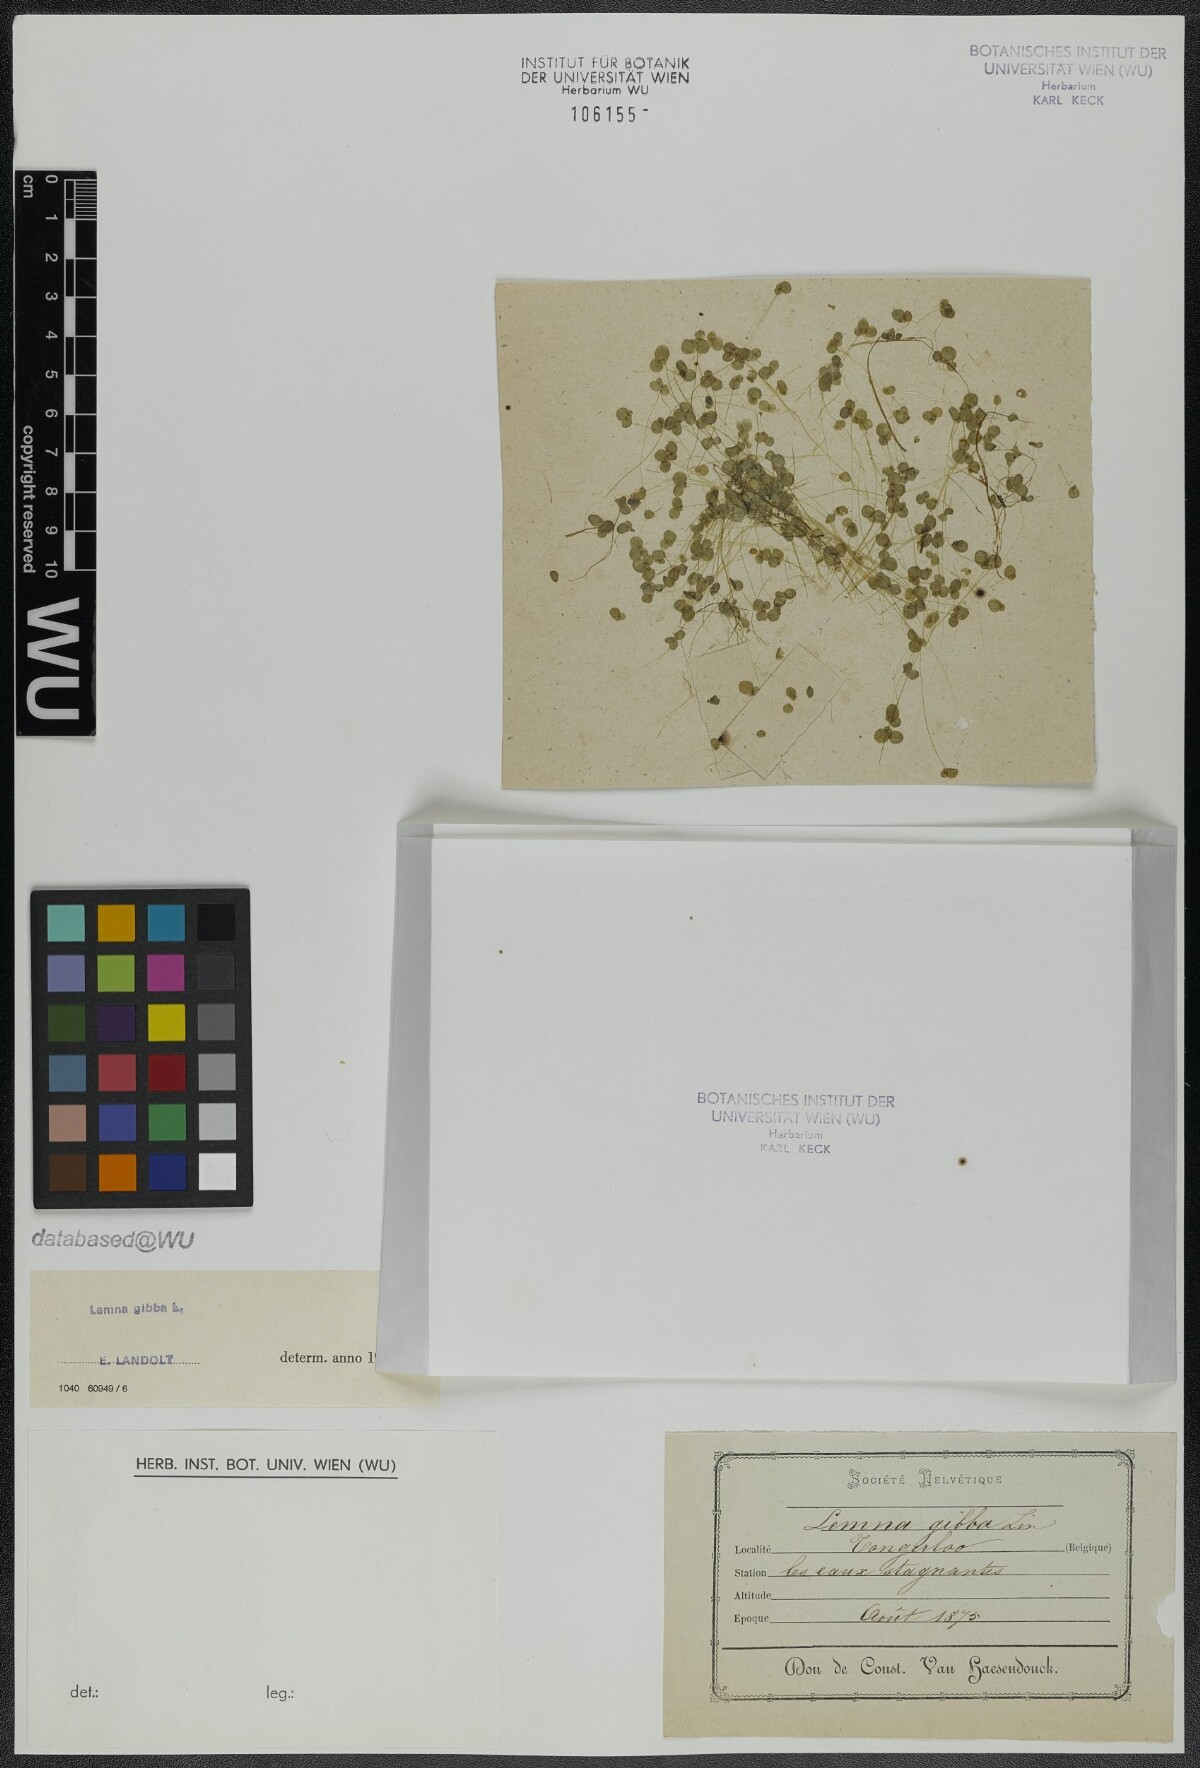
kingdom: Plantae
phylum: Tracheophyta
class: Liliopsida
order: Alismatales
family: Araceae
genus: Lemna
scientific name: Lemna gibba
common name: Fat duckweed
